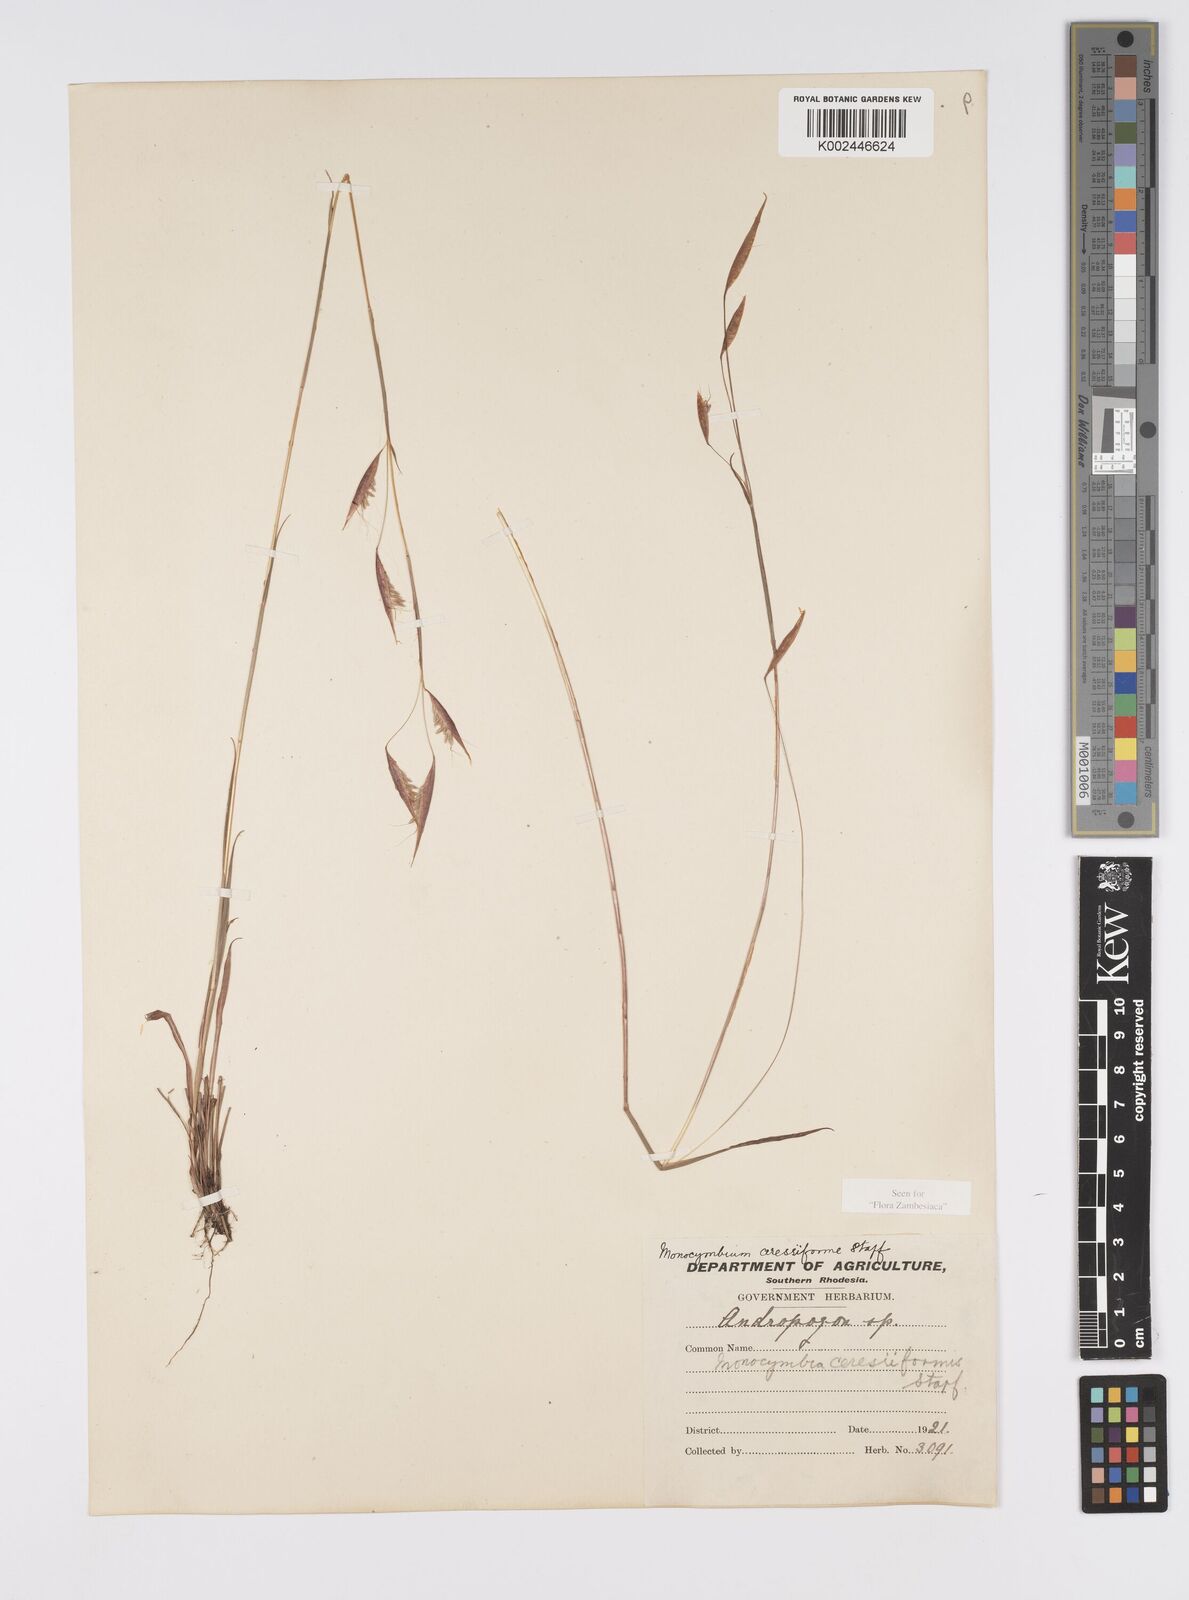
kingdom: Plantae
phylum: Tracheophyta
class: Liliopsida
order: Poales
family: Poaceae
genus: Monocymbium
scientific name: Monocymbium ceresiiforme
